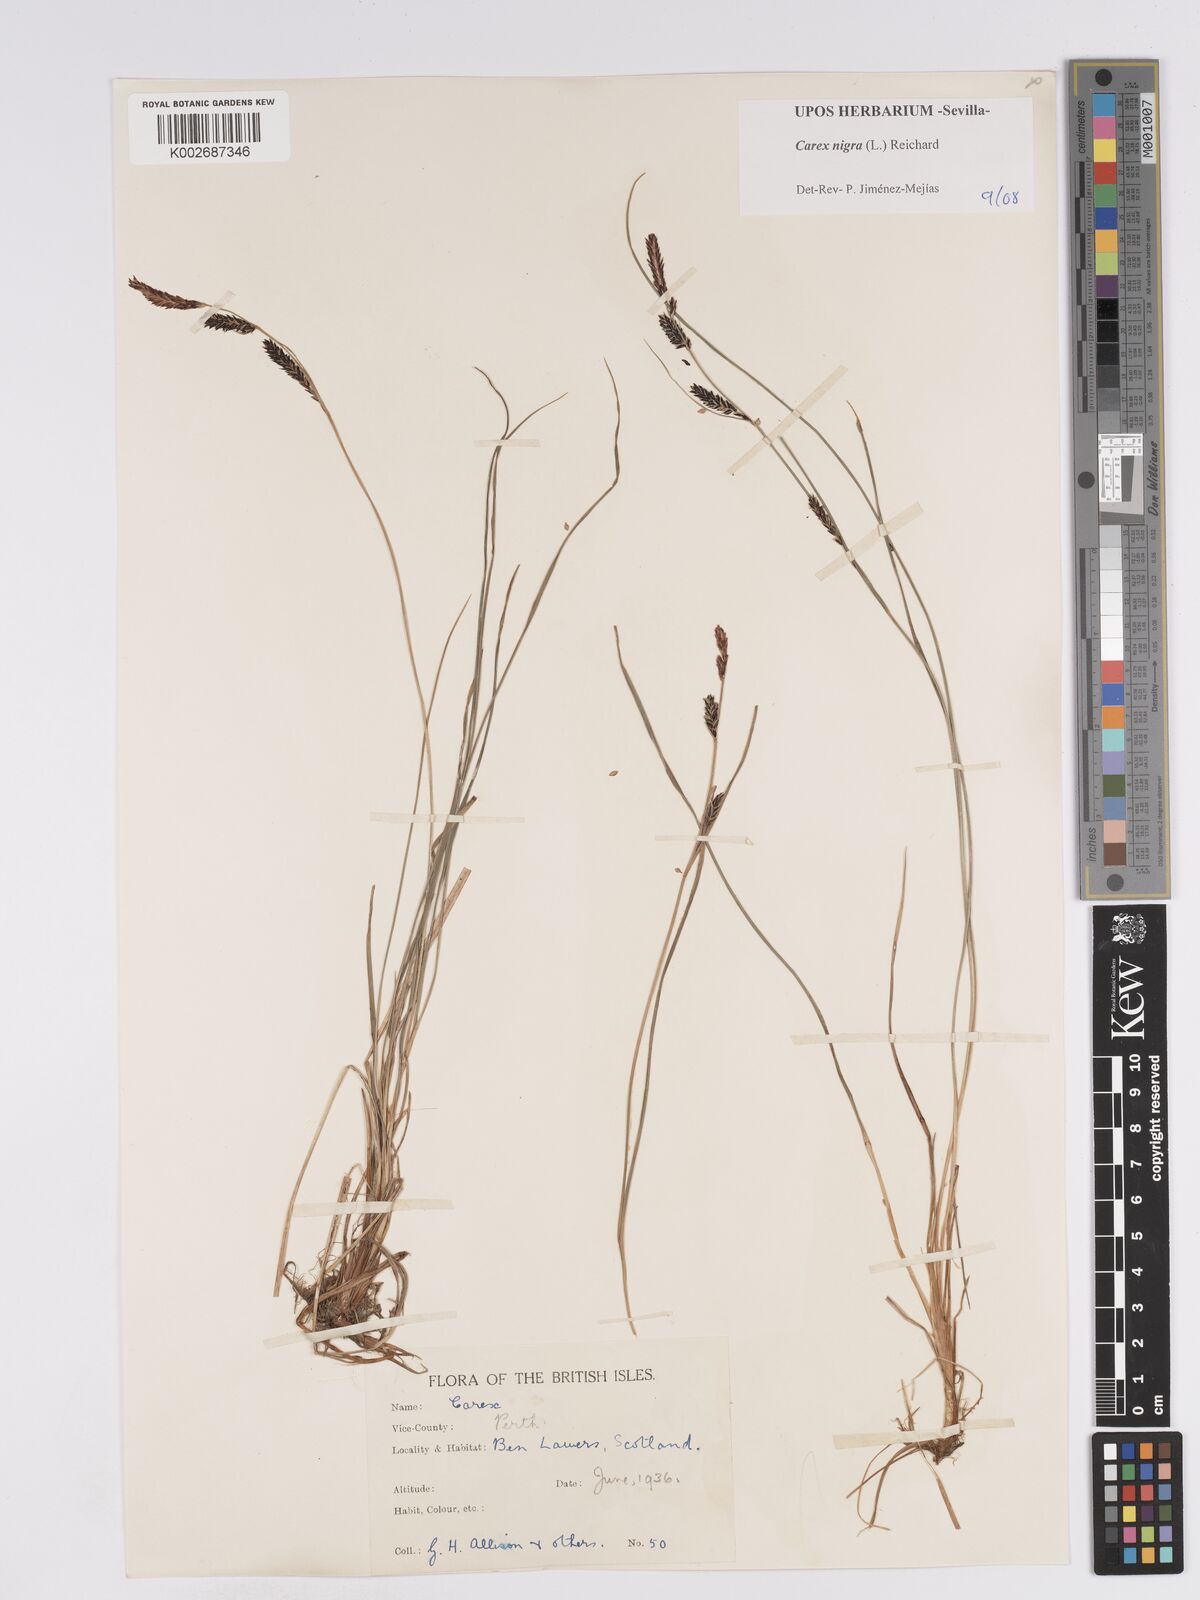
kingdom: Plantae
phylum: Tracheophyta
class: Liliopsida
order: Poales
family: Cyperaceae
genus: Carex
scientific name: Carex nigra
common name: Common sedge
